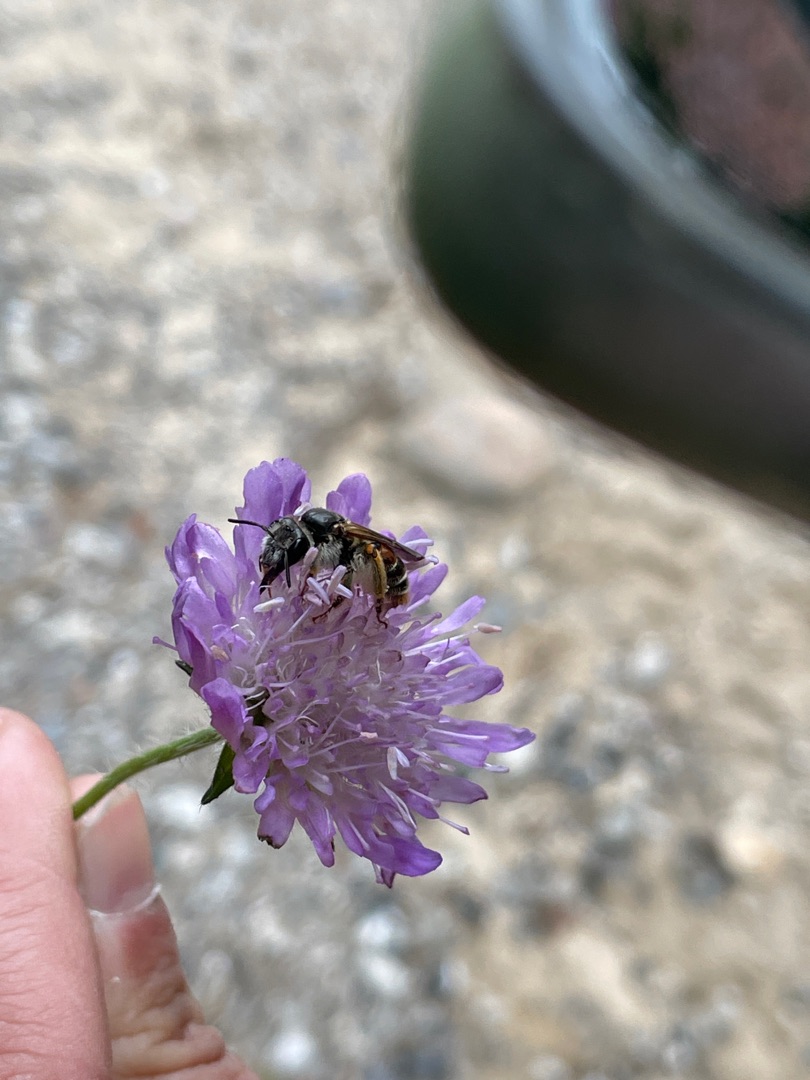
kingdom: Animalia
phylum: Arthropoda
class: Insecta
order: Hymenoptera
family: Andrenidae
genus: Andrena
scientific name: Andrena hattorfiana
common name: Blåhatjordbi
